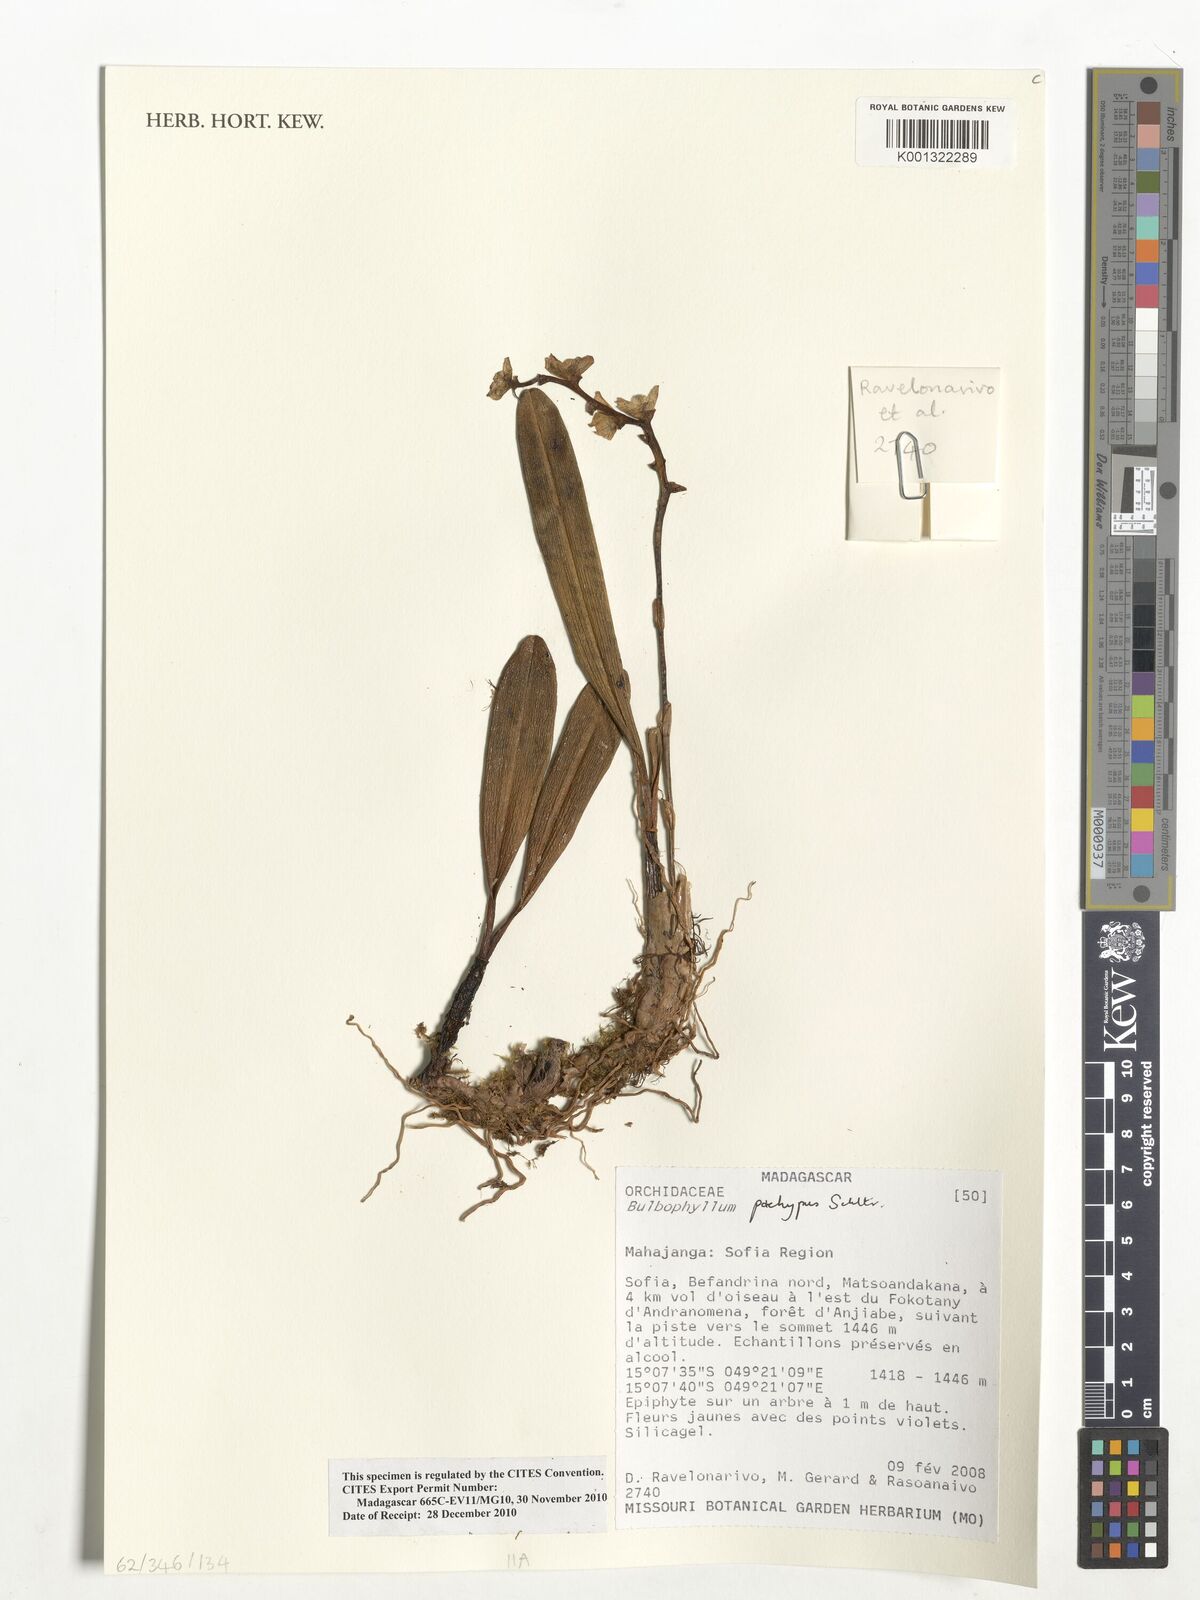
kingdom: Plantae
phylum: Tracheophyta
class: Liliopsida
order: Asparagales
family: Orchidaceae
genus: Bulbophyllum
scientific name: Bulbophyllum pachypus
